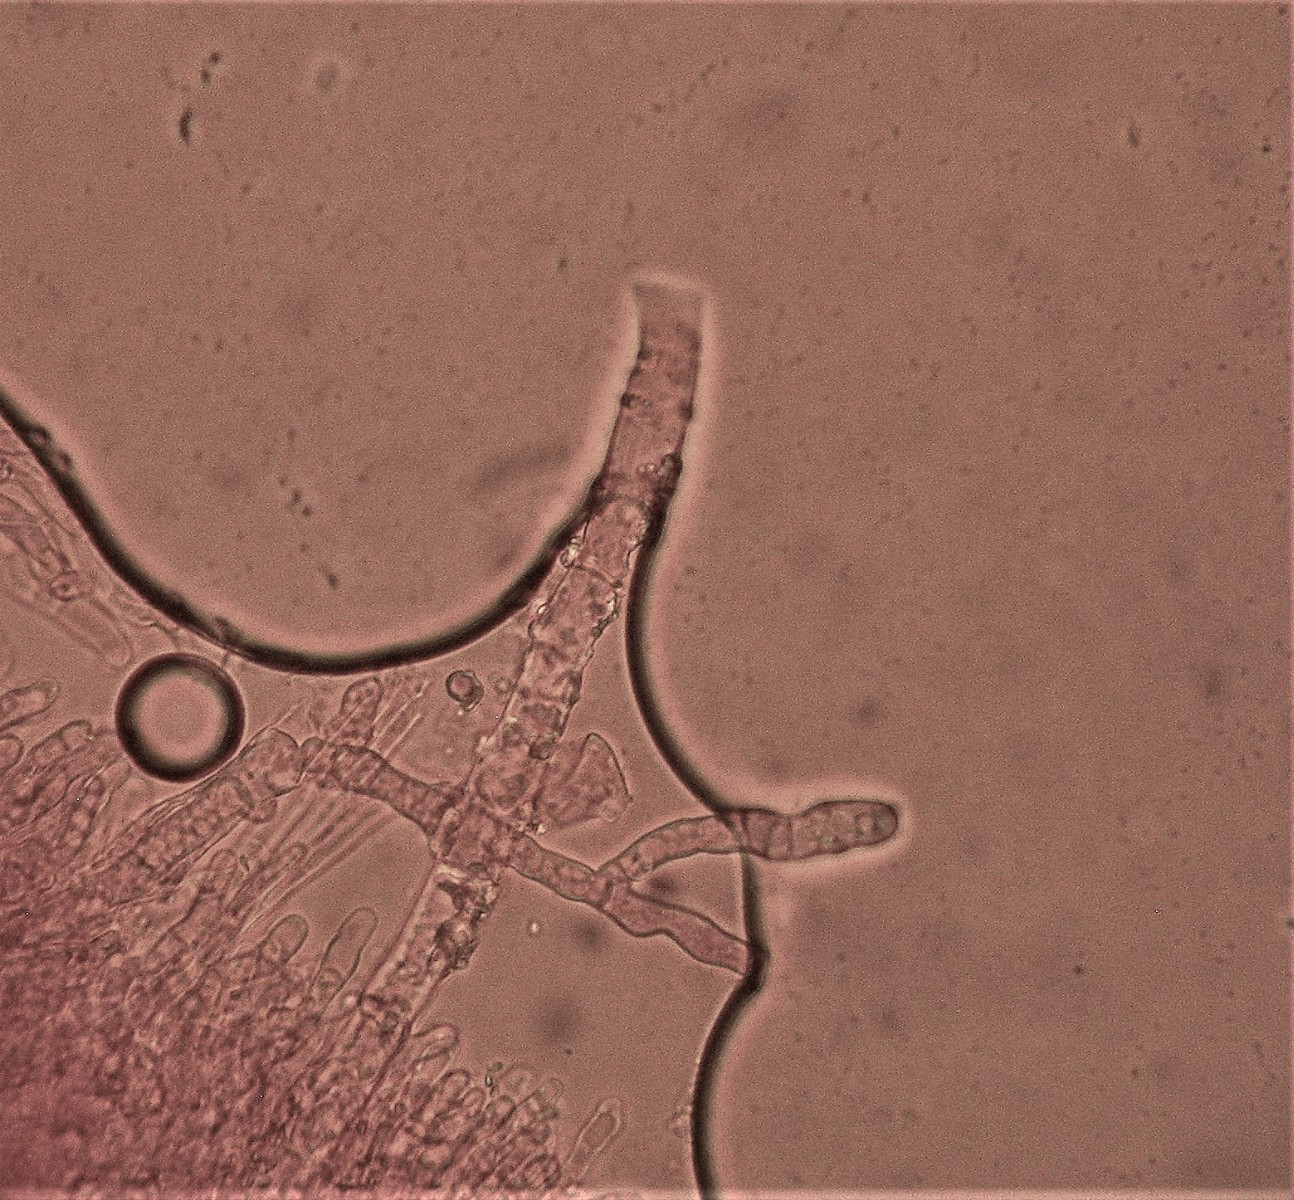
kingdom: Fungi
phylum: Basidiomycota
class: Agaricomycetes
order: Polyporales
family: Hyphodermataceae
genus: Hyphoderma
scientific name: Hyphoderma setigerum
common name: håret kalkskind
